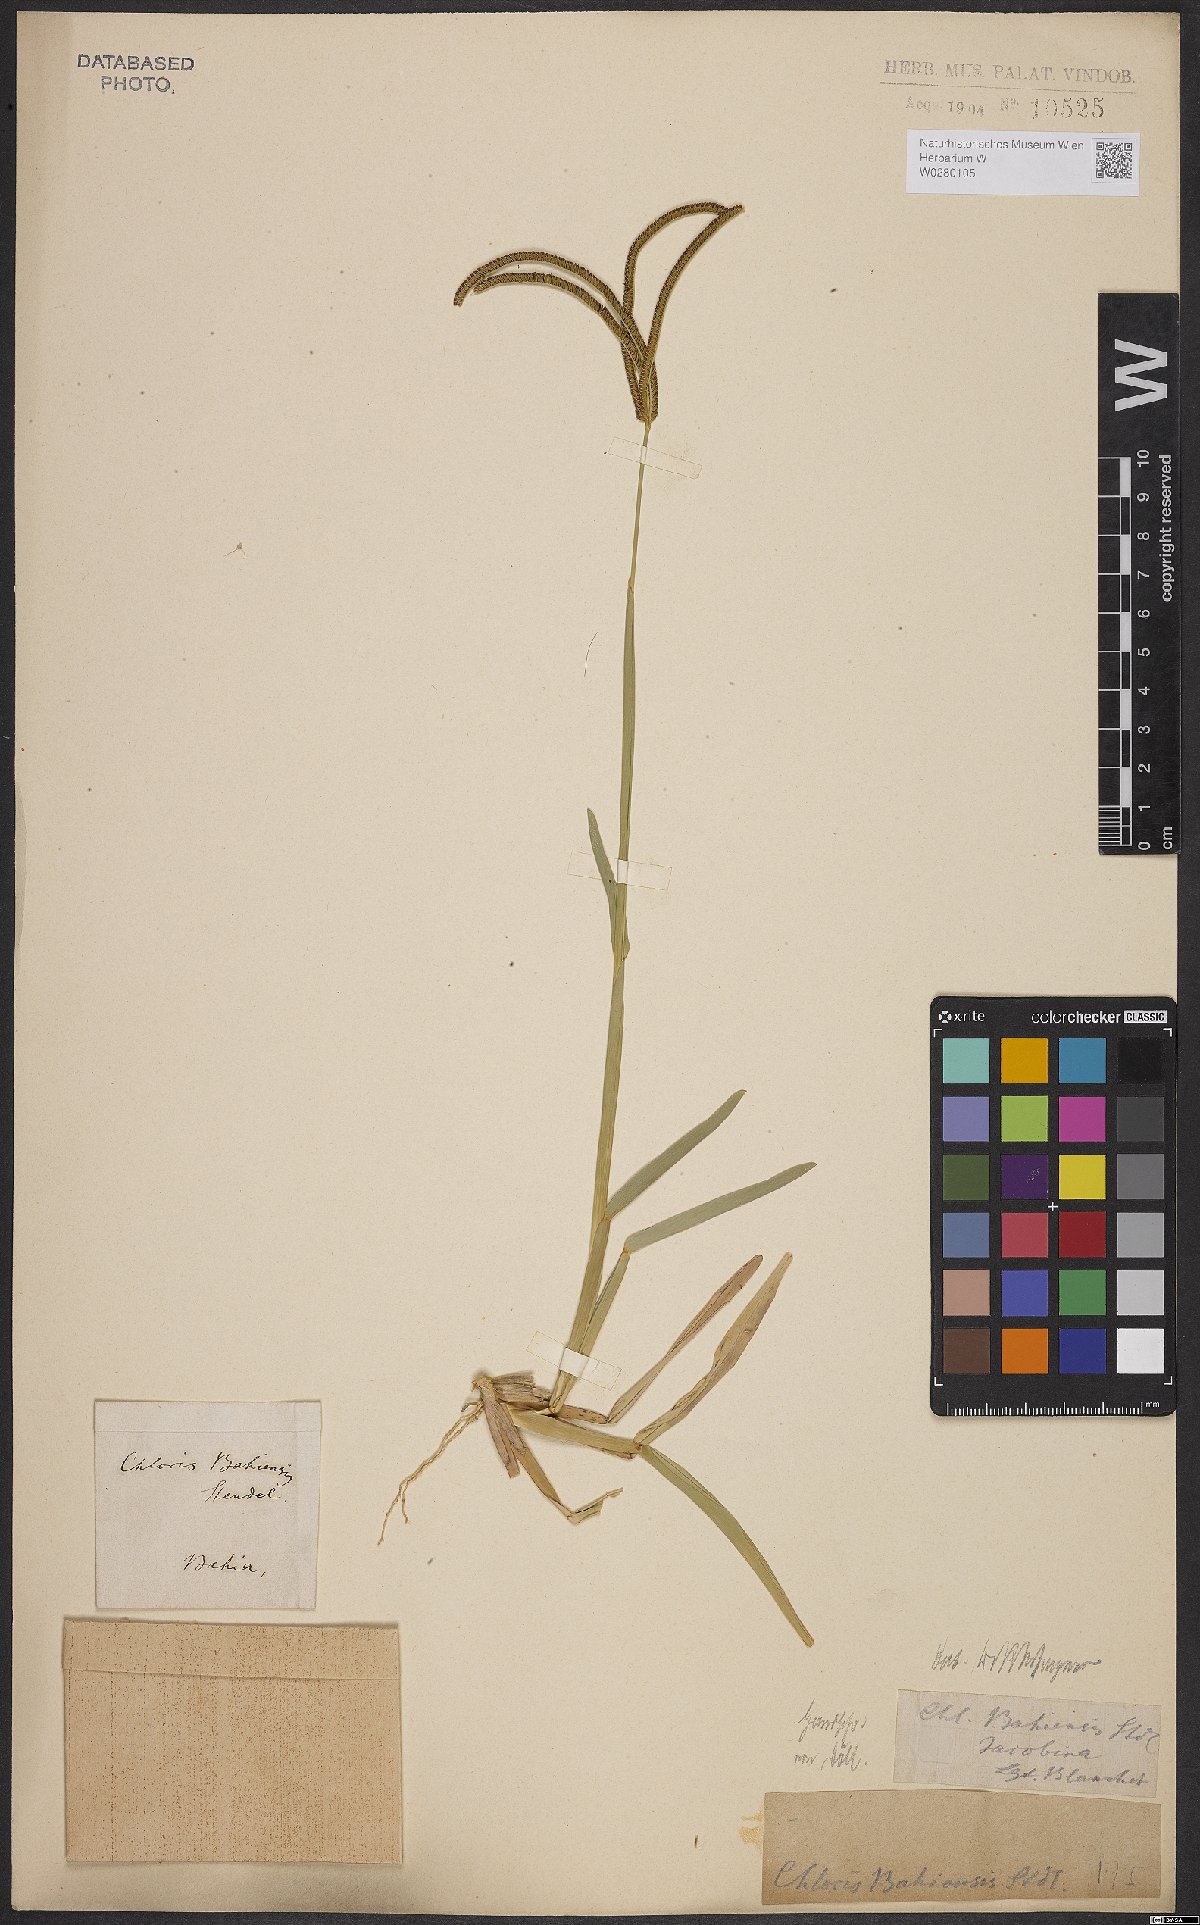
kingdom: Plantae
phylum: Tracheophyta
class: Liliopsida
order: Poales
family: Poaceae
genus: Eustachys
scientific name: Eustachys bahiensis
